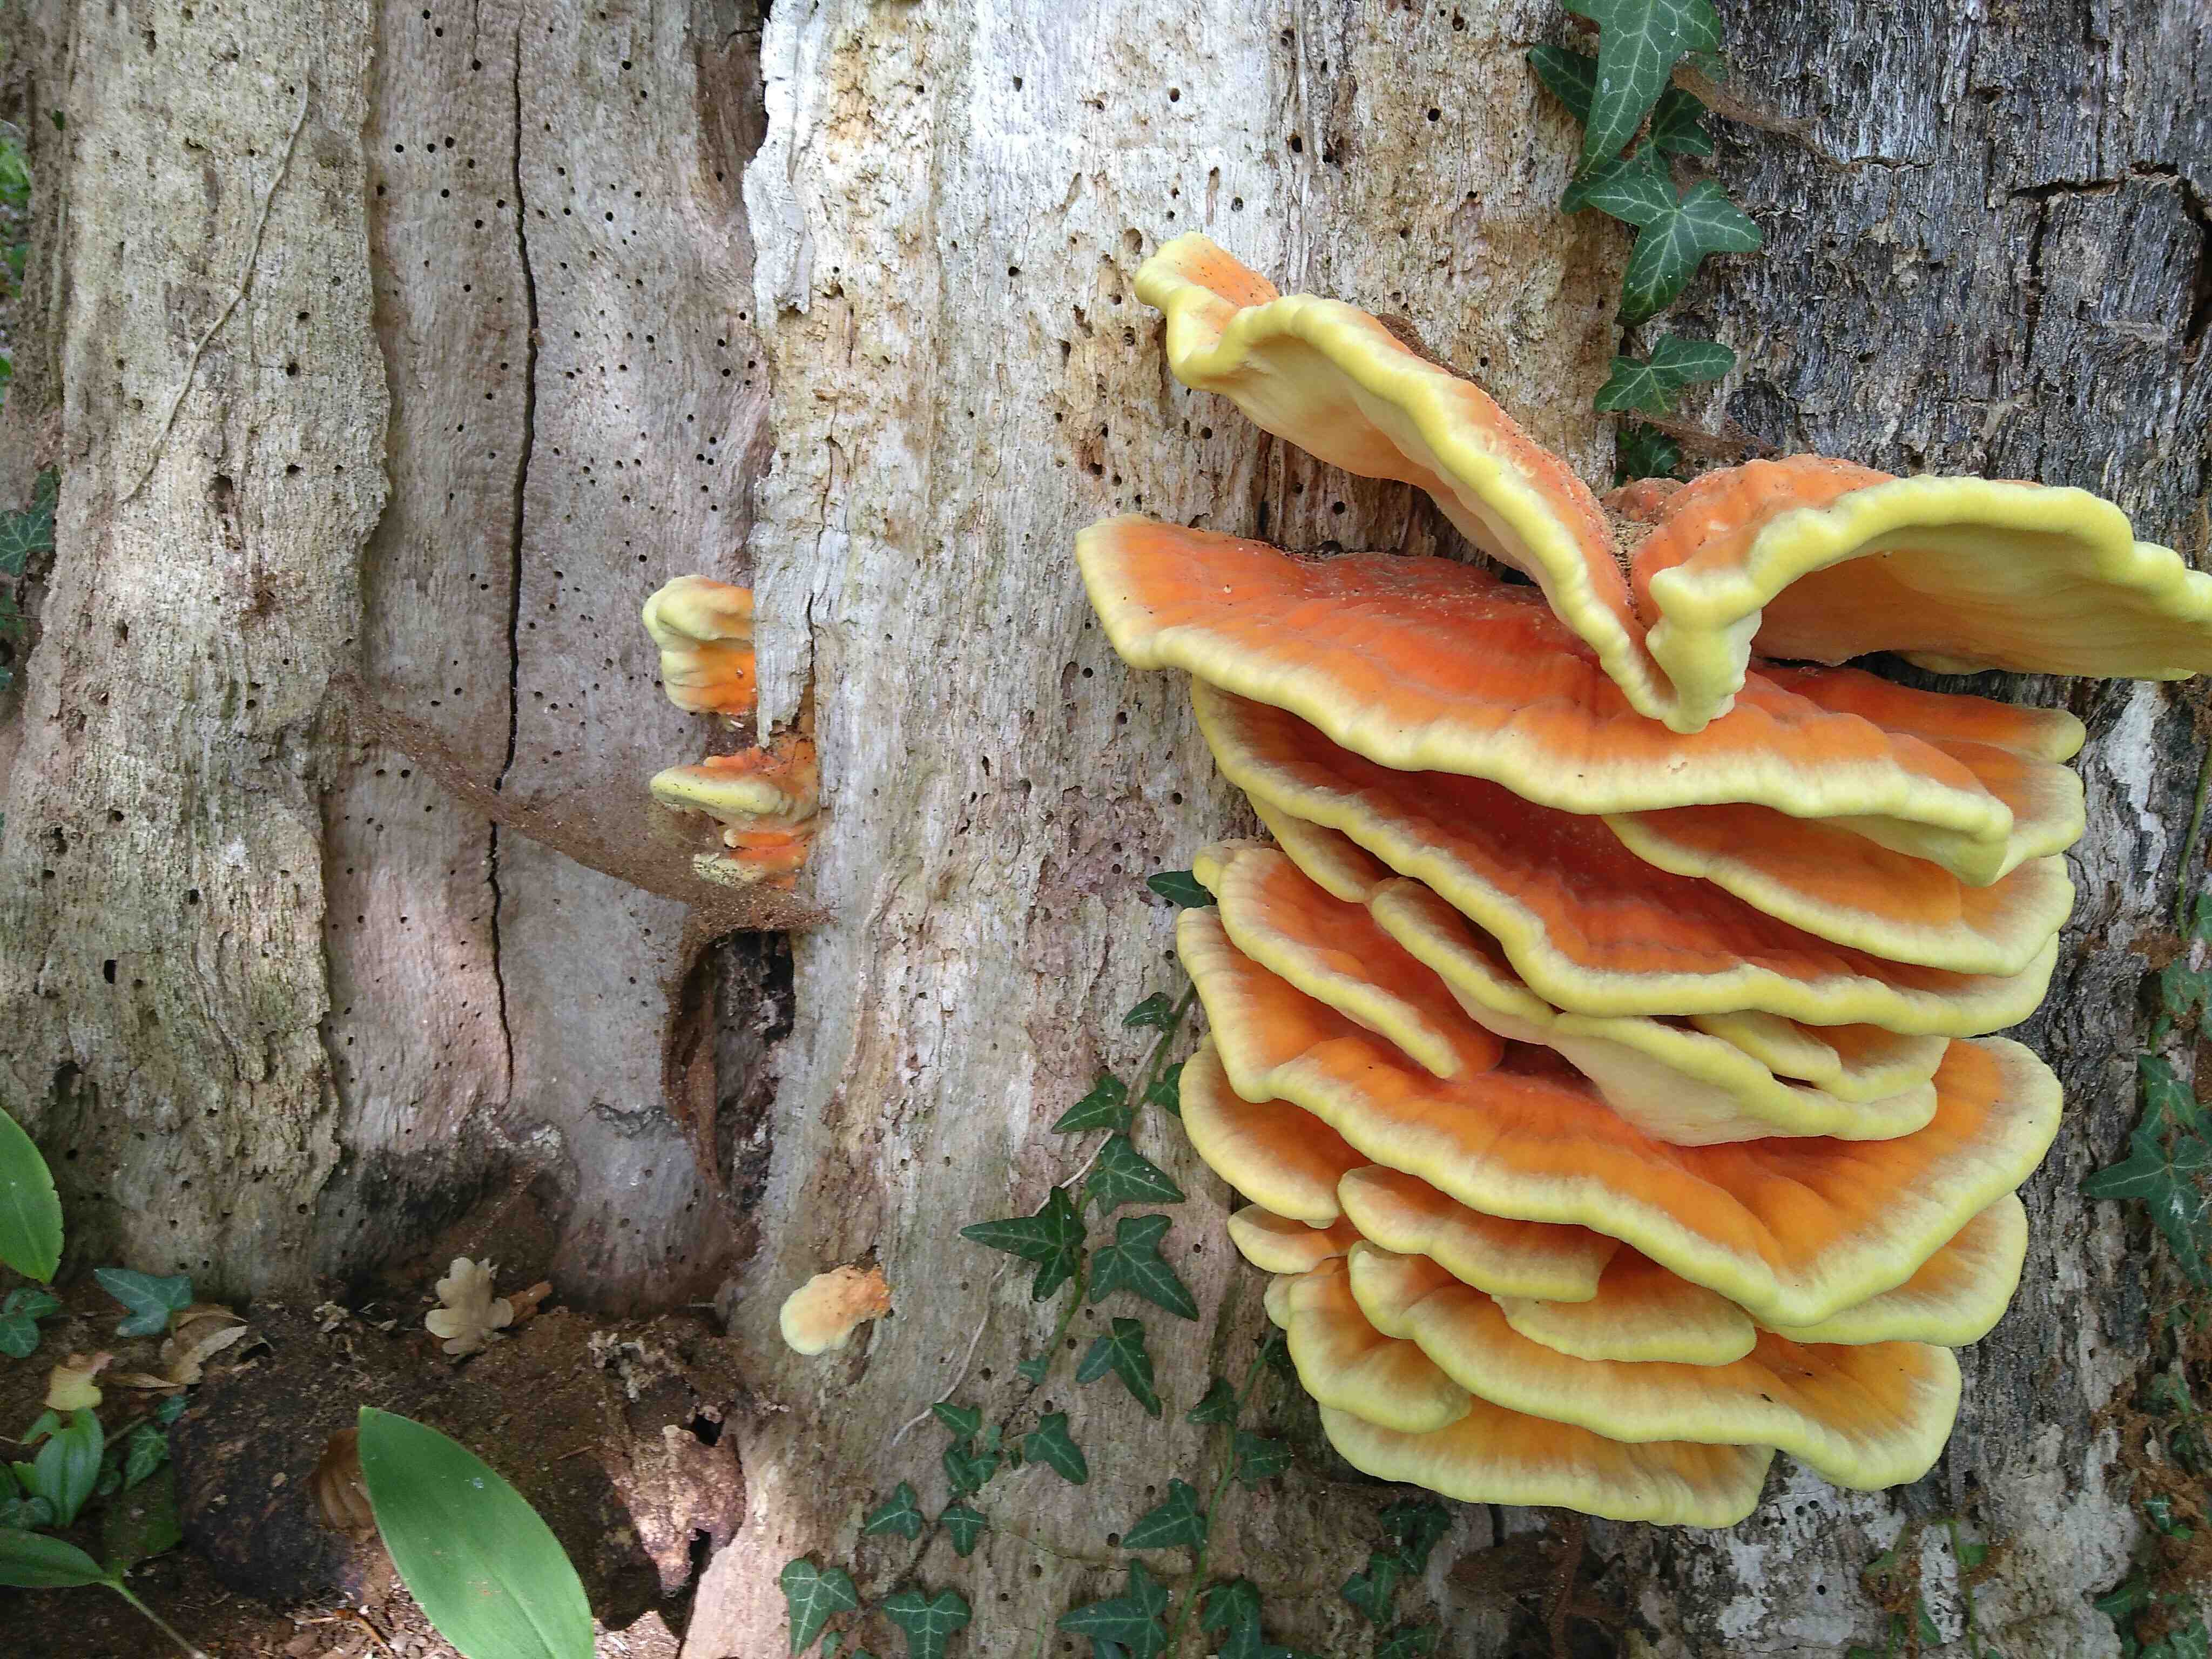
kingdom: Fungi
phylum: Basidiomycota
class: Agaricomycetes
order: Polyporales
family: Laetiporaceae
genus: Laetiporus
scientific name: Laetiporus sulphureus
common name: svovlporesvamp
